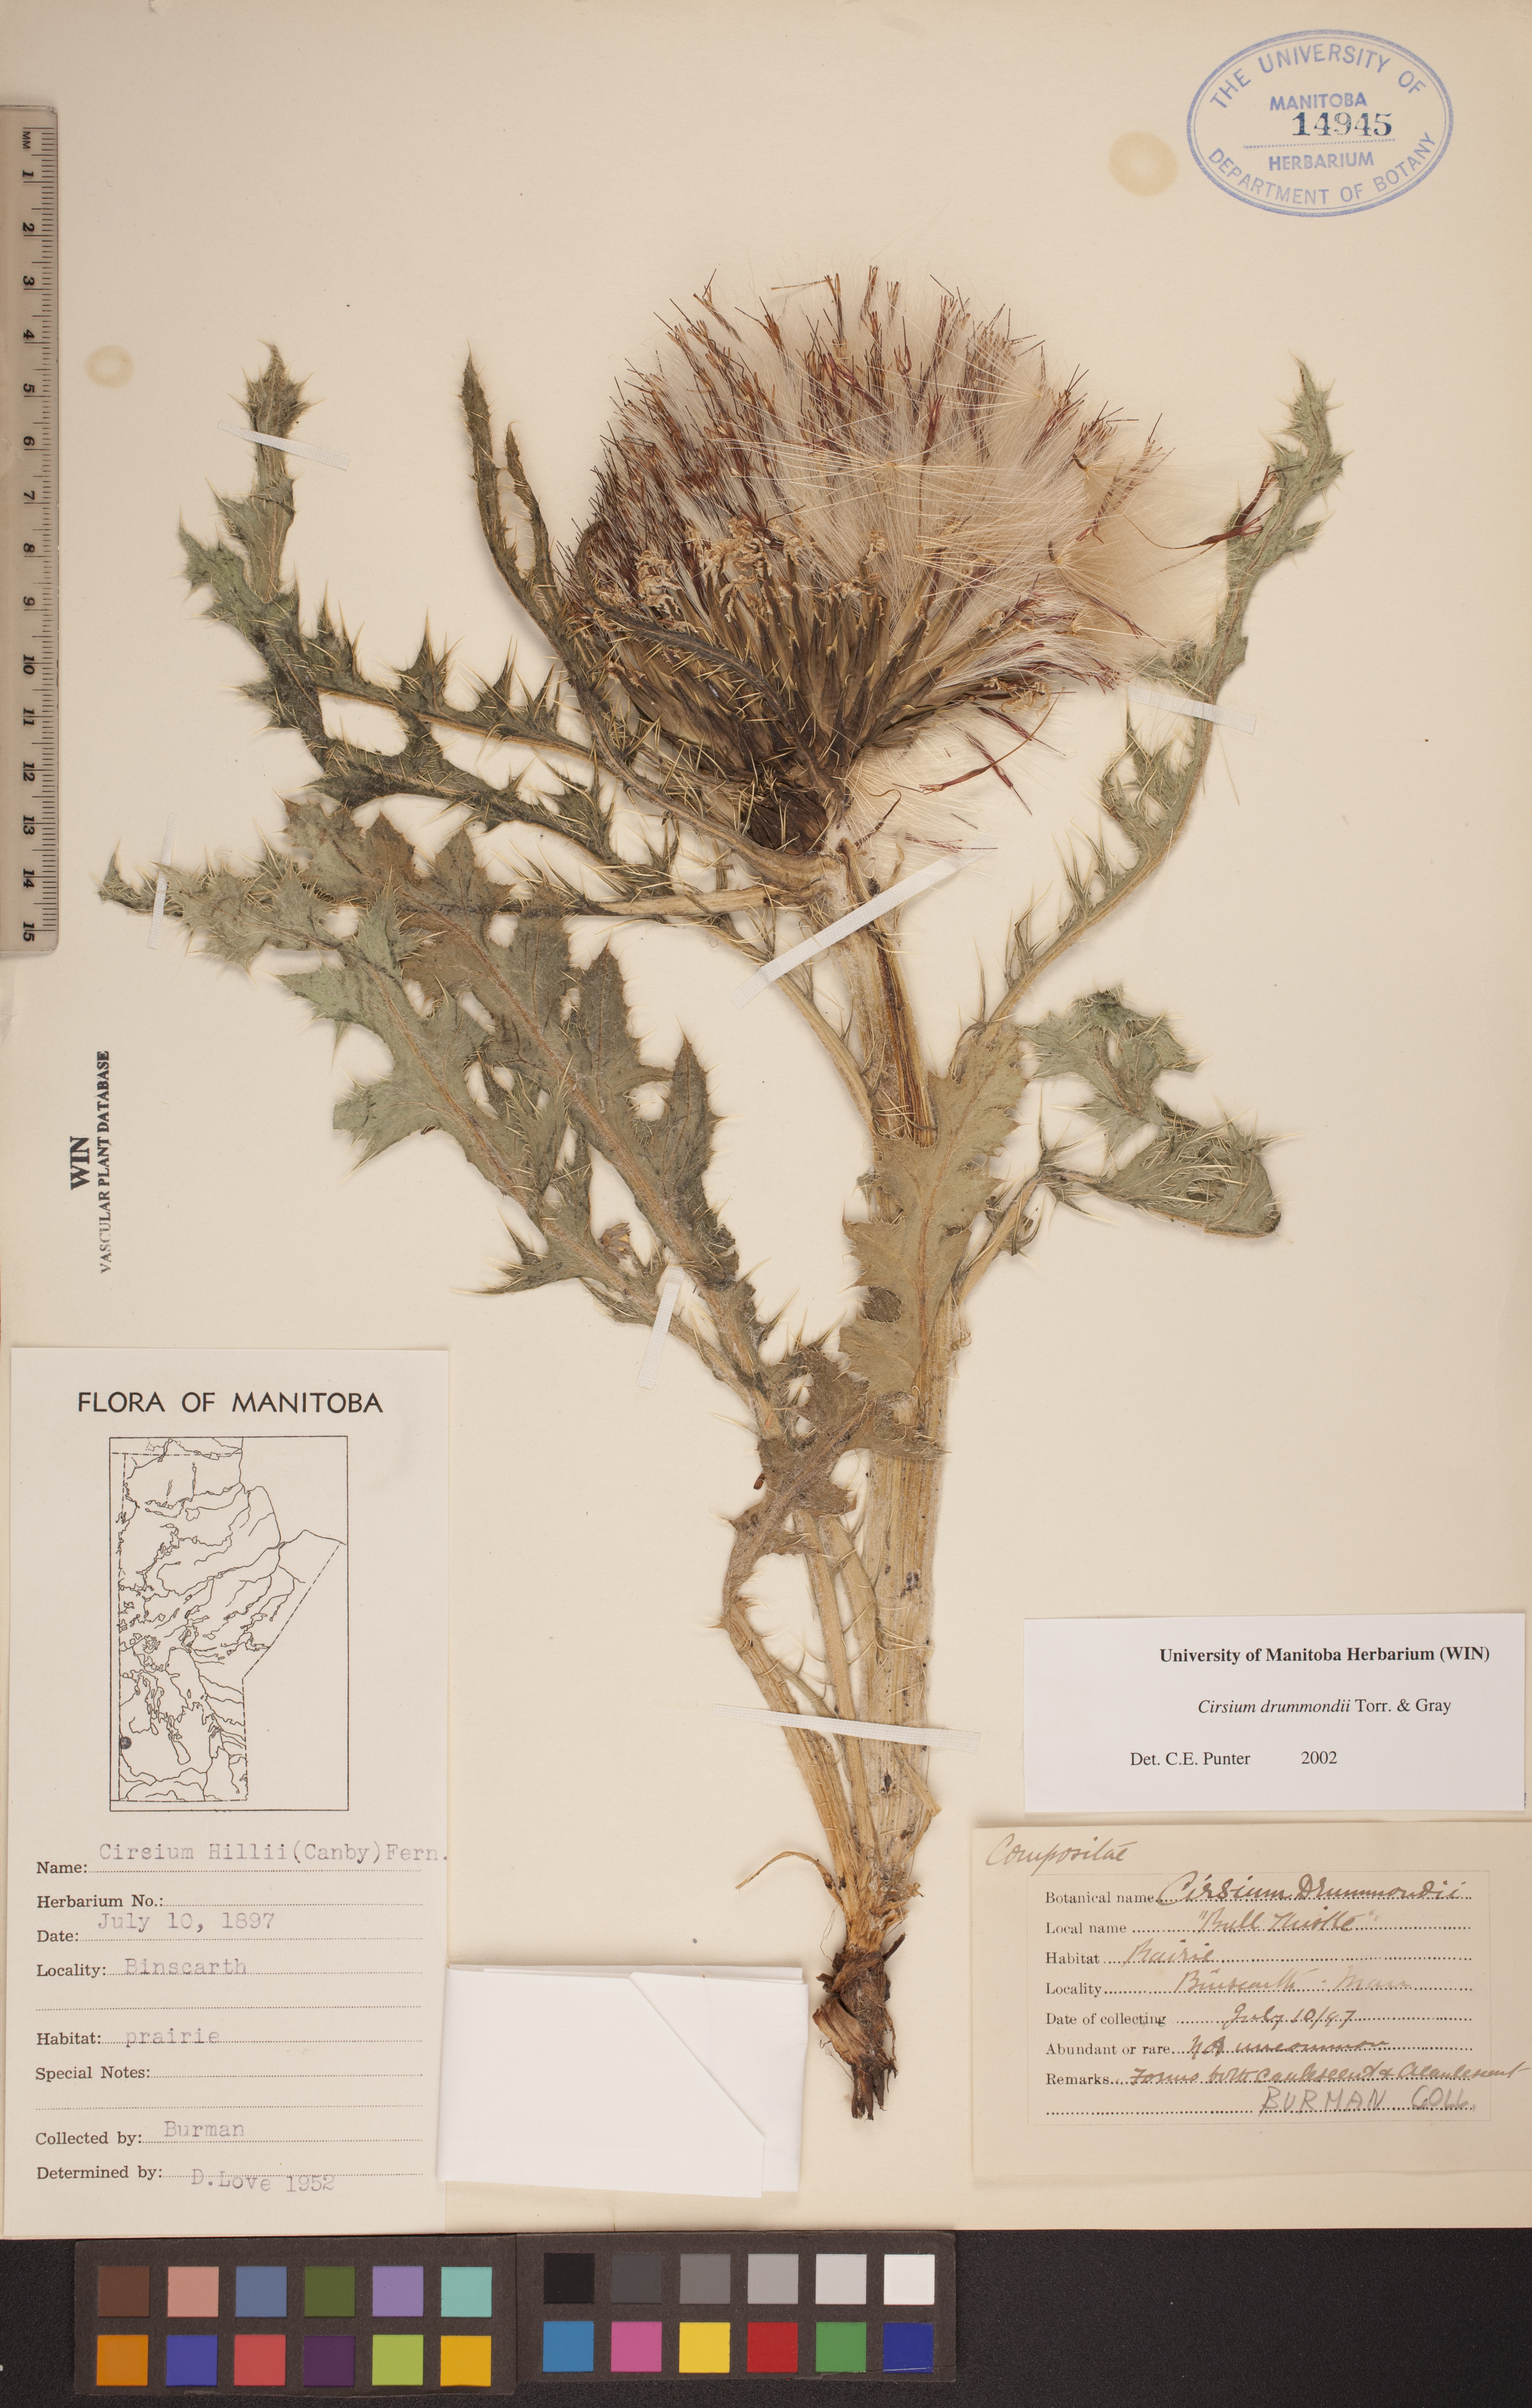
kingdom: Plantae
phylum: Tracheophyta
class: Magnoliopsida
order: Asterales
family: Asteraceae
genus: Cirsium
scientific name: Cirsium drummondii
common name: Drummond's thistle
